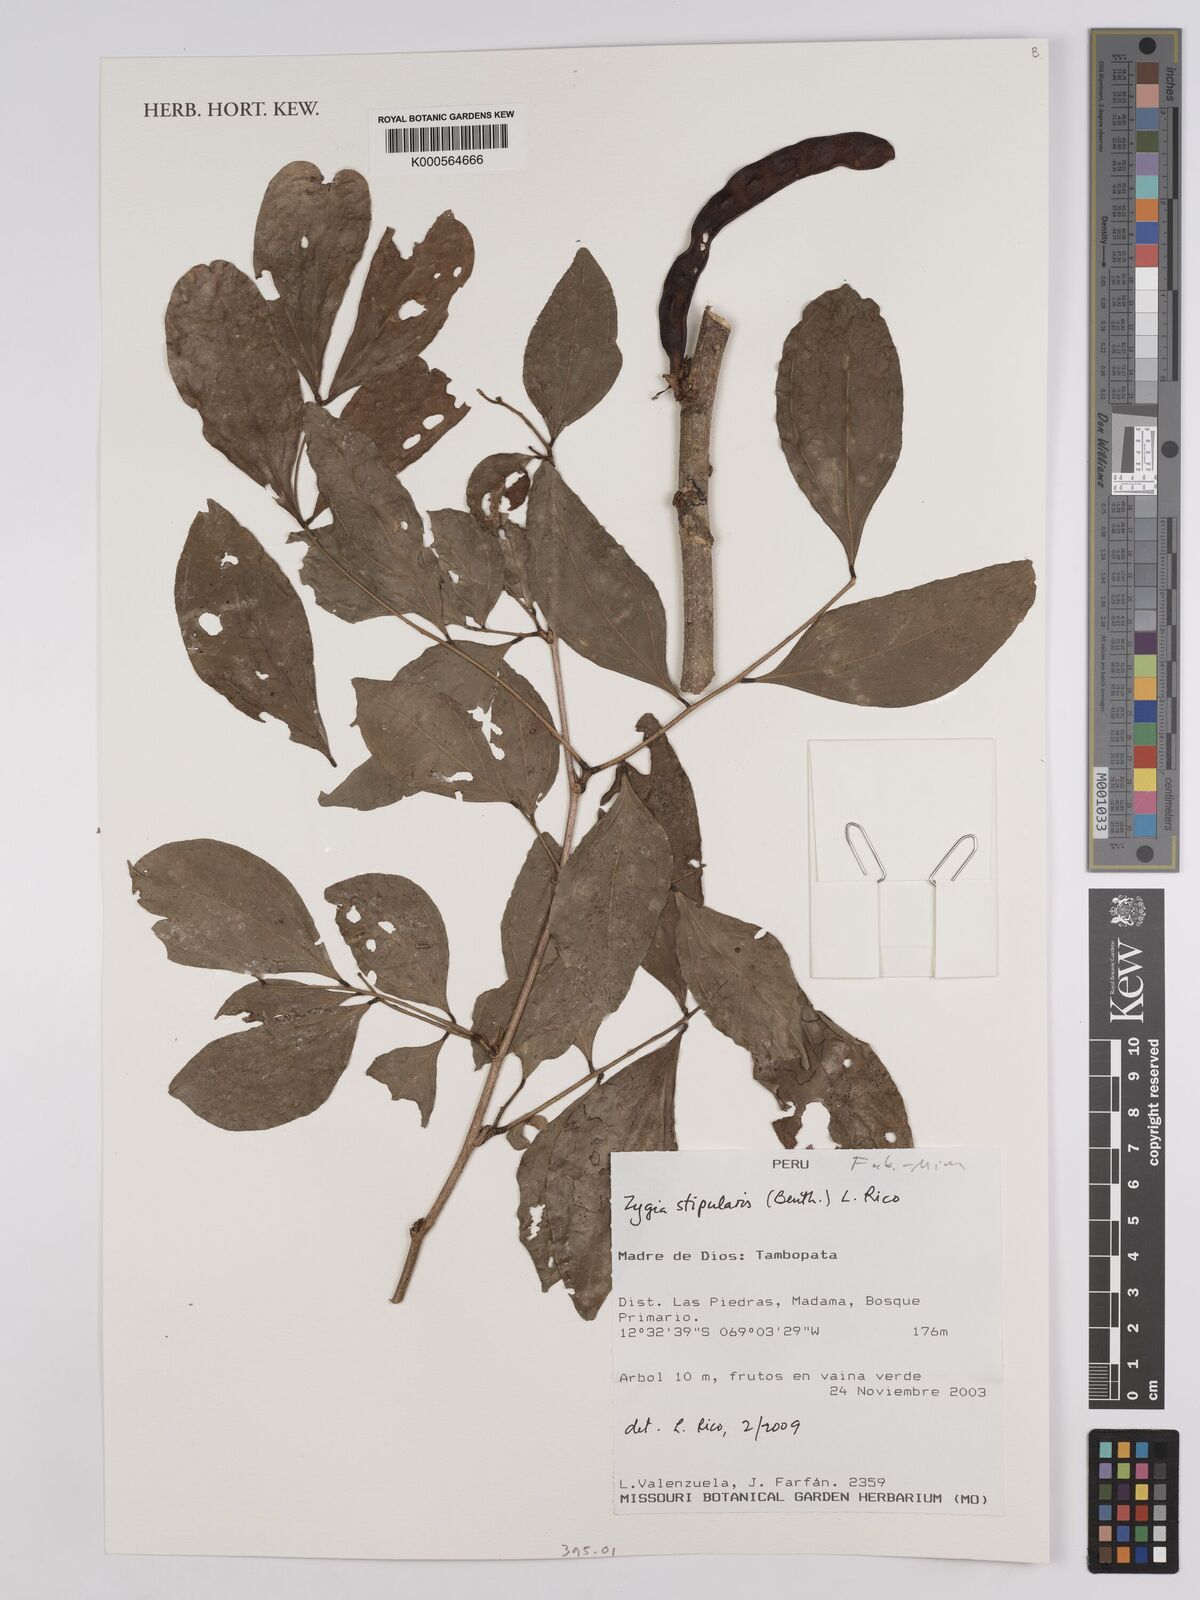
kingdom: Plantae
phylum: Tracheophyta
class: Magnoliopsida
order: Fabales
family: Fabaceae
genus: Zygia
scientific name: Zygia cauliflora
